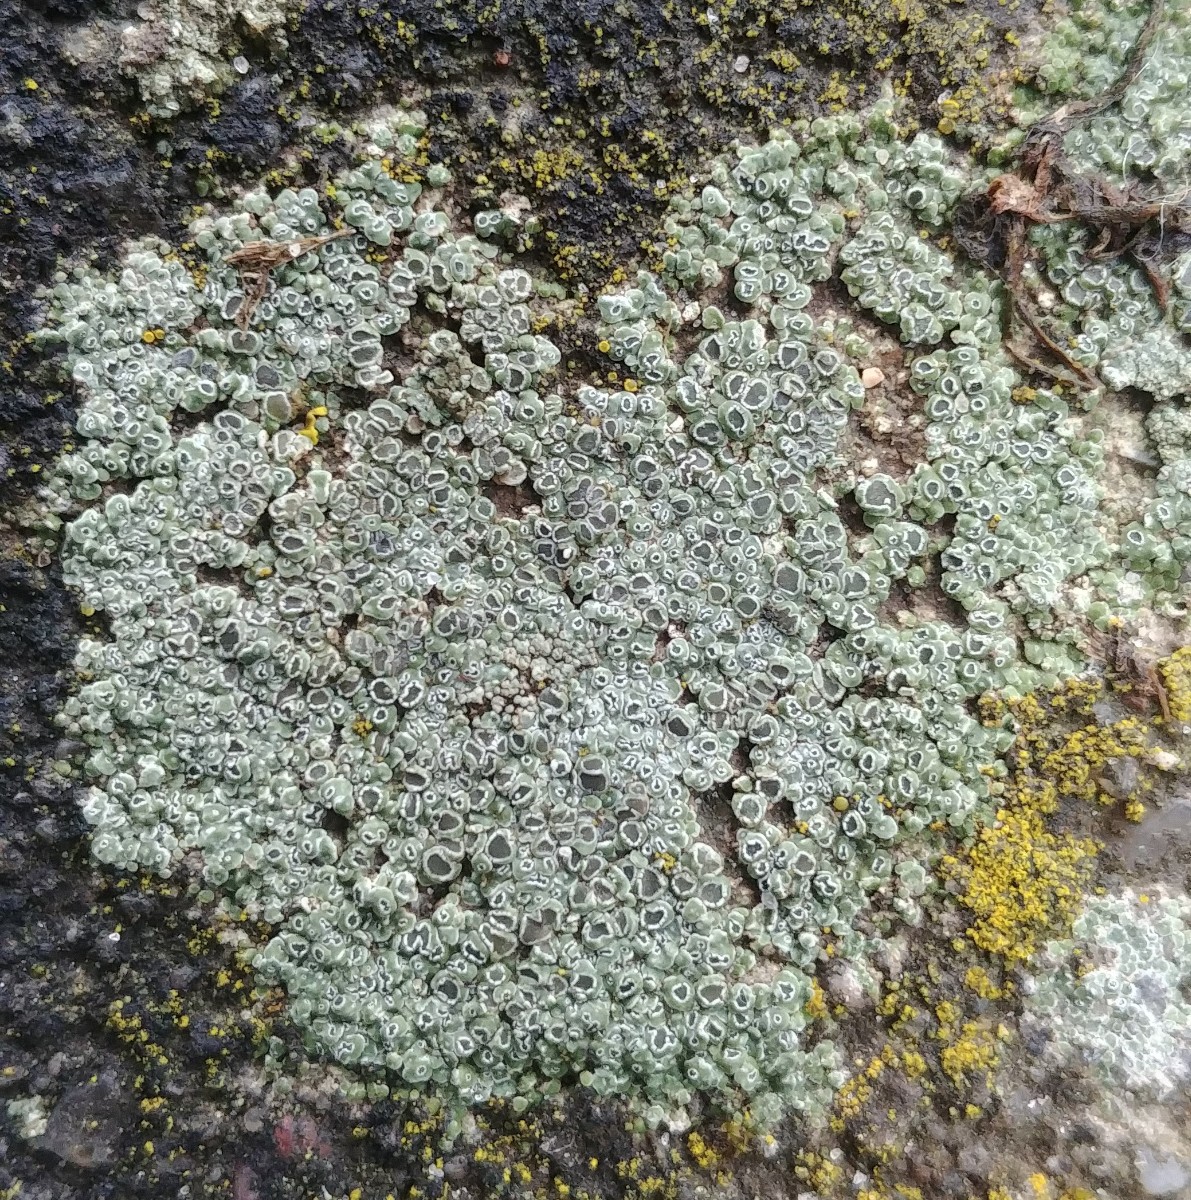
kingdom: Fungi
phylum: Ascomycota
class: Lecanoromycetes
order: Pertusariales
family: Megasporaceae
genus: Circinaria
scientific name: Circinaria contorta
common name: indviklet hulskivelav
